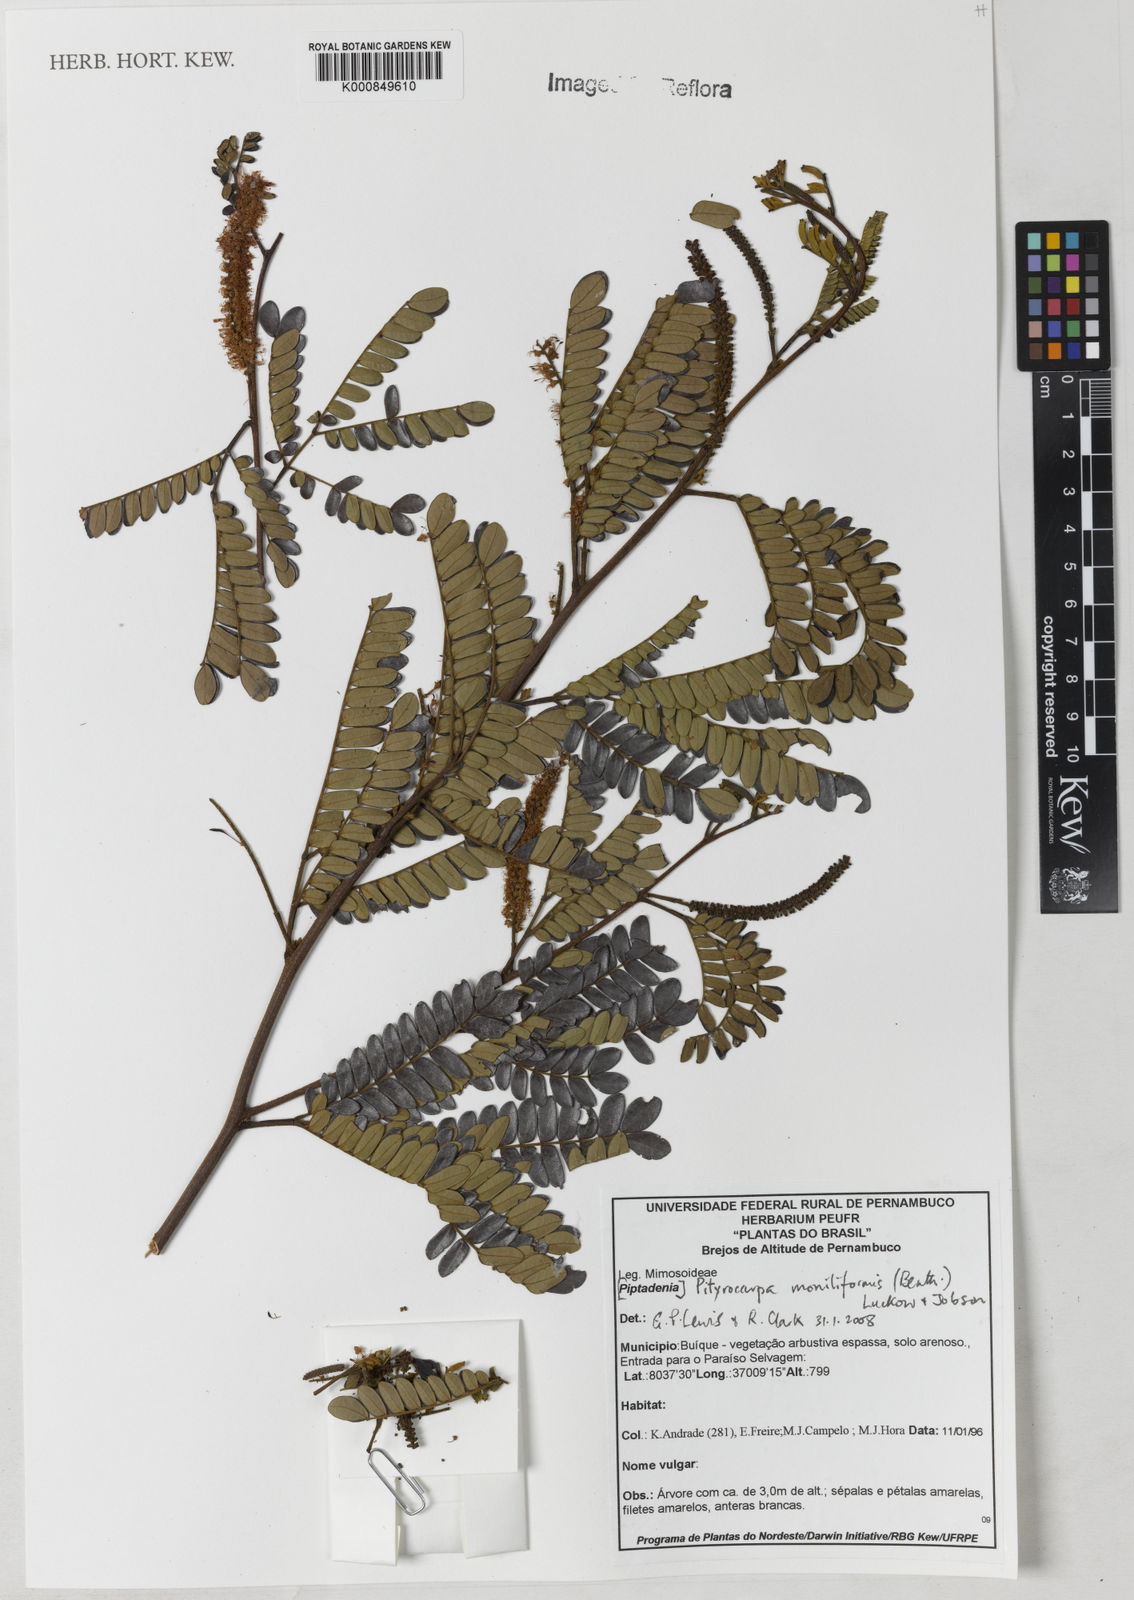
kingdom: Plantae
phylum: Tracheophyta
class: Magnoliopsida
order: Fabales
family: Fabaceae
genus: Pityrocarpa
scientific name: Pityrocarpa moniliformis
